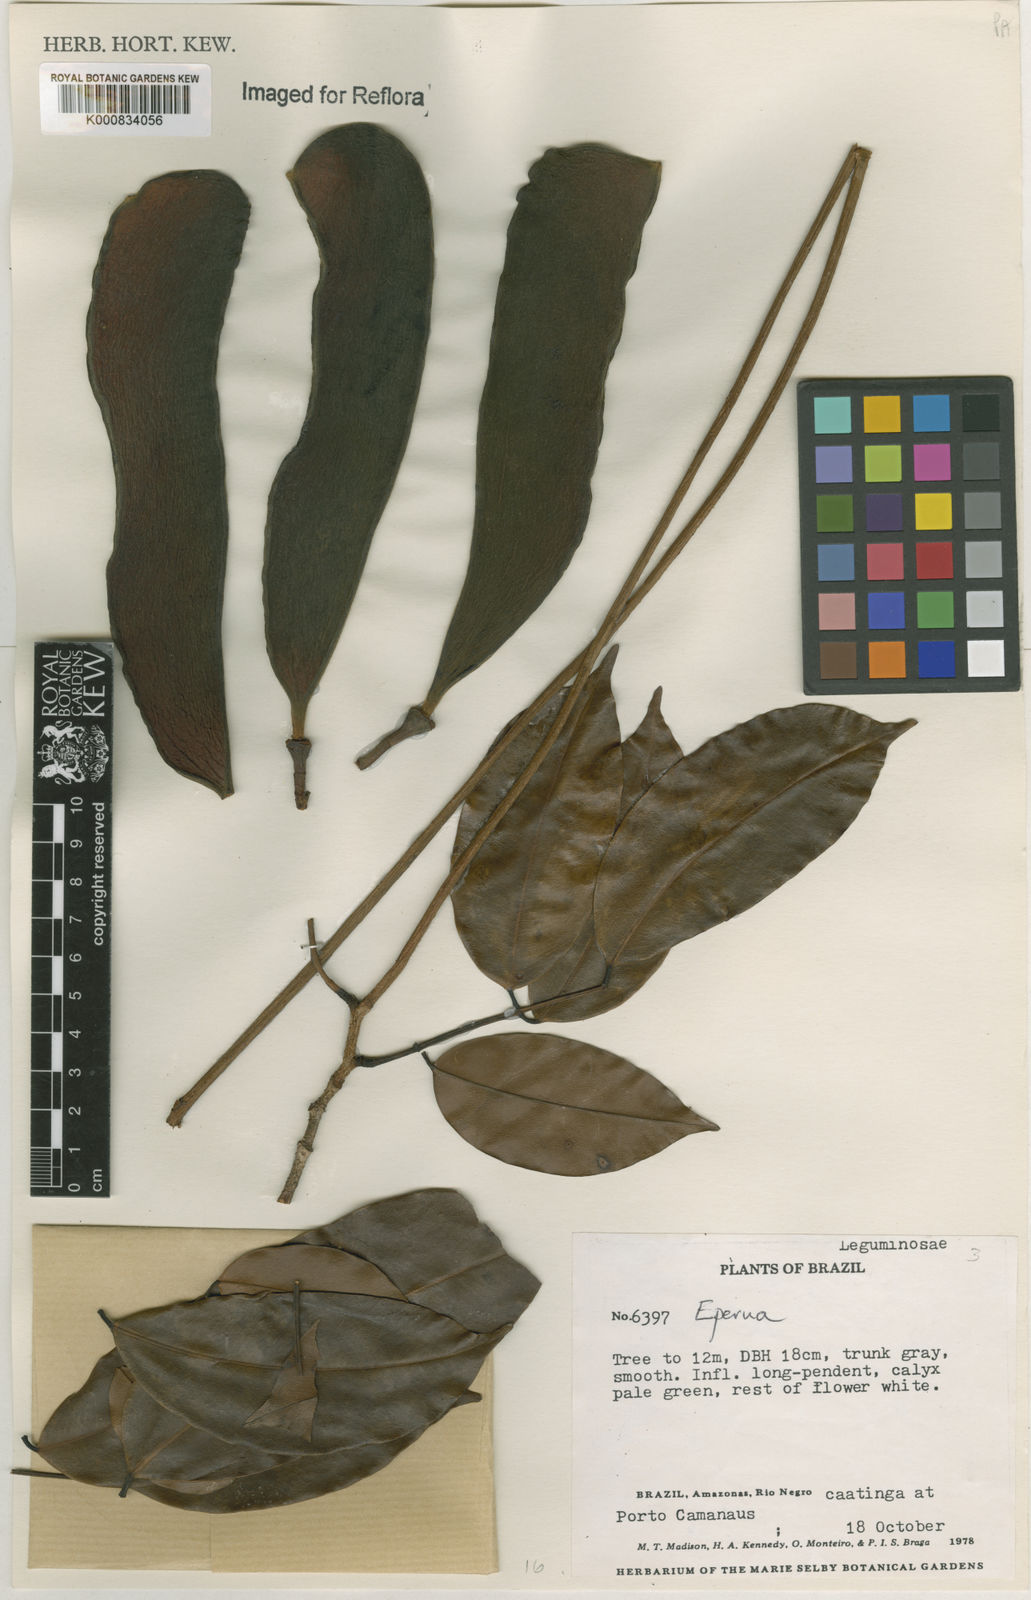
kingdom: Plantae
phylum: Tracheophyta
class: Magnoliopsida
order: Fabales
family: Fabaceae
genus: Eperua
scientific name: Eperua
